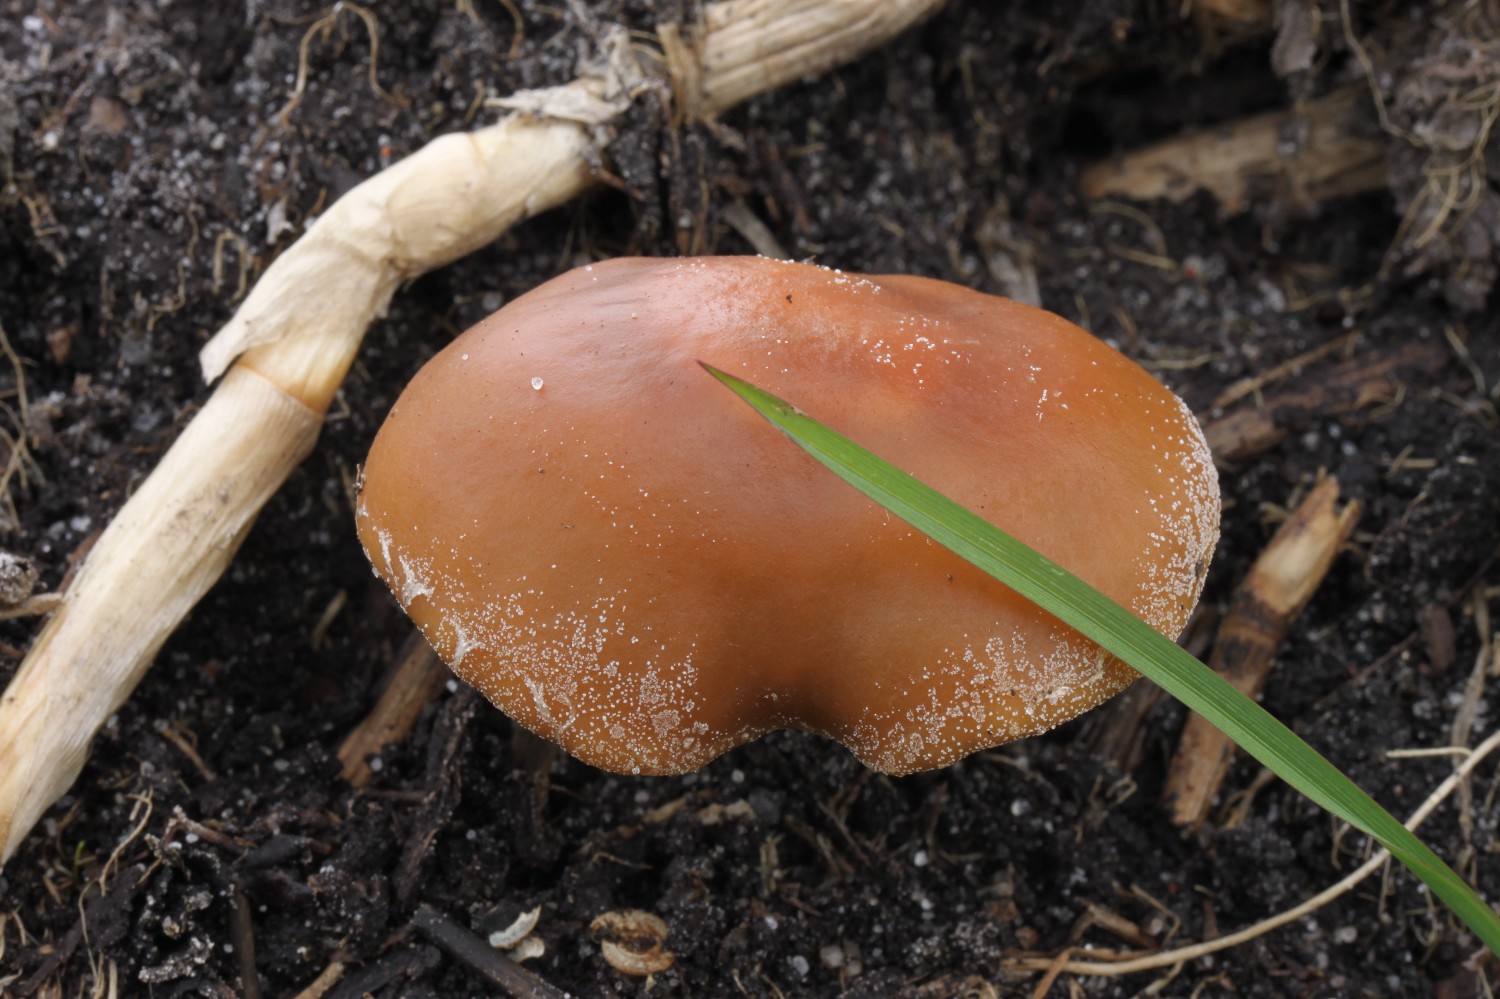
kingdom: Fungi
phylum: Basidiomycota
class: Agaricomycetes
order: Agaricales
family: Psathyrellaceae
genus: Psathyrella
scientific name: Psathyrella
